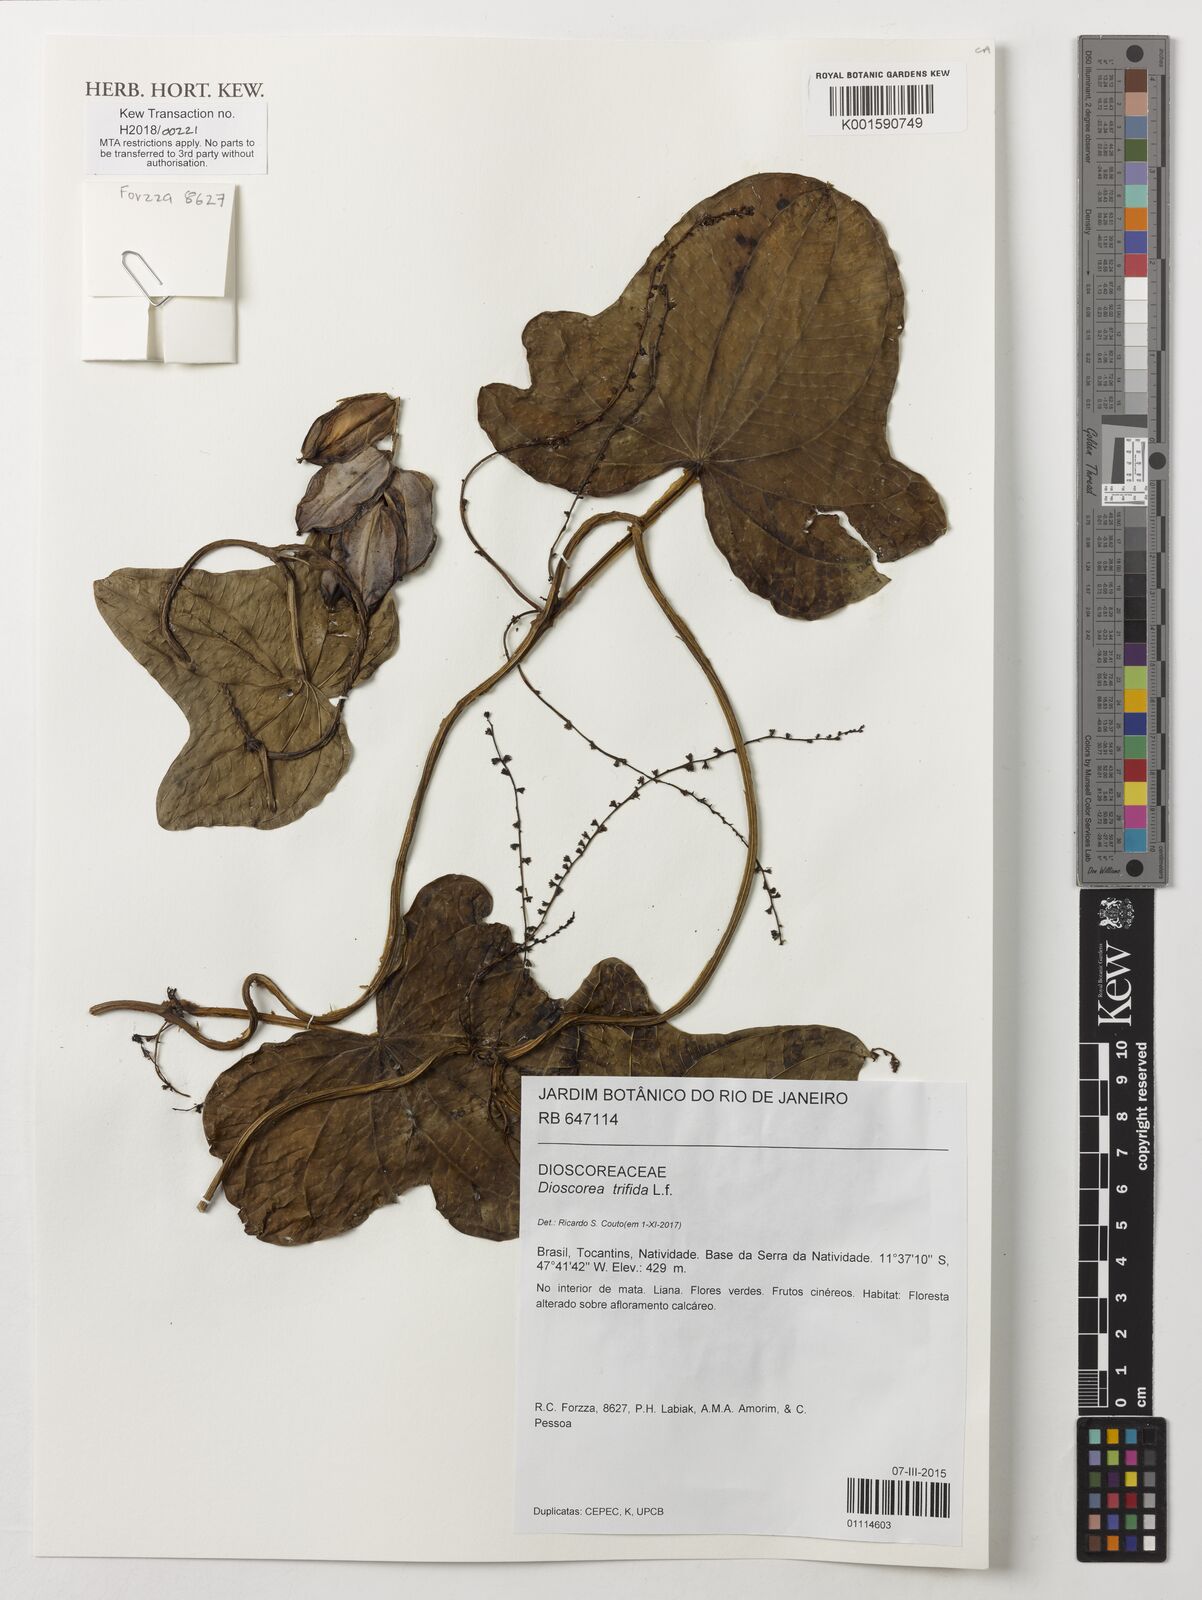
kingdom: Plantae
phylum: Tracheophyta
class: Liliopsida
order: Dioscoreales
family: Dioscoreaceae
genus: Dioscorea
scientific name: Dioscorea trifida
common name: Cush-cush
